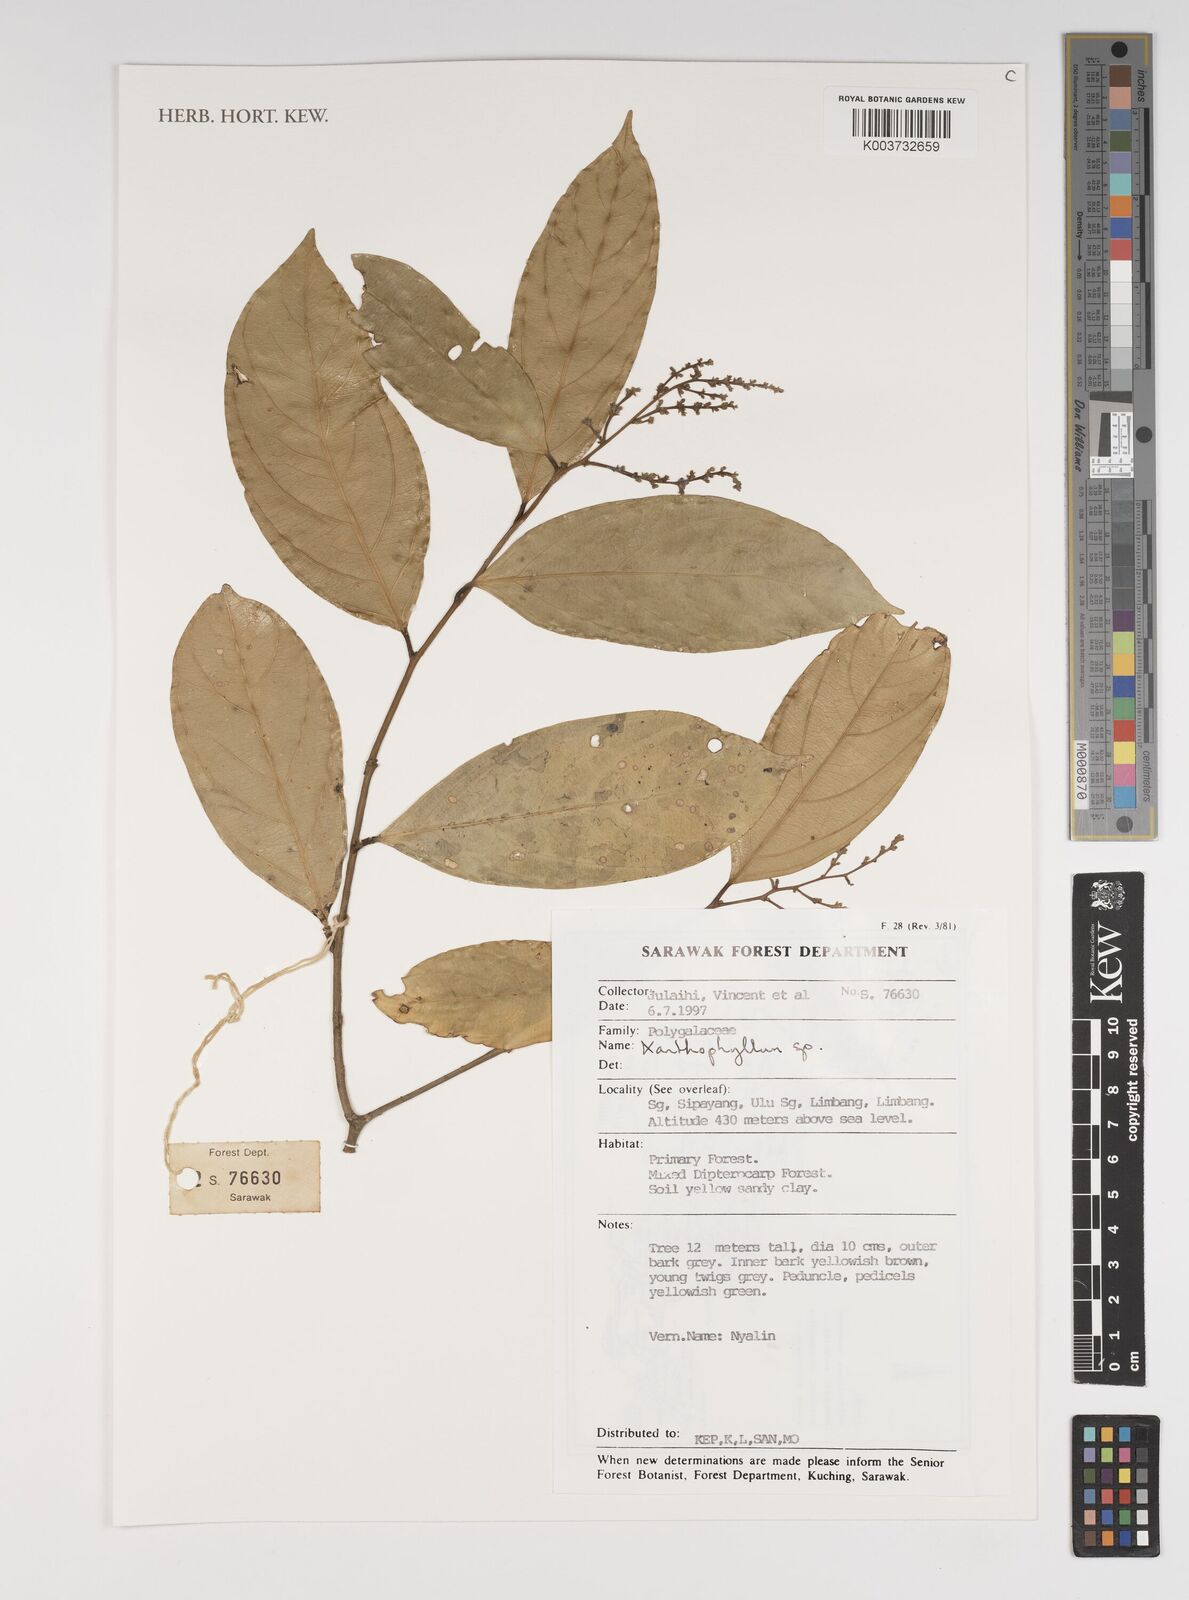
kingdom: Plantae
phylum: Tracheophyta
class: Magnoliopsida
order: Fabales
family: Polygalaceae
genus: Xanthophyllum
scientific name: Xanthophyllum
